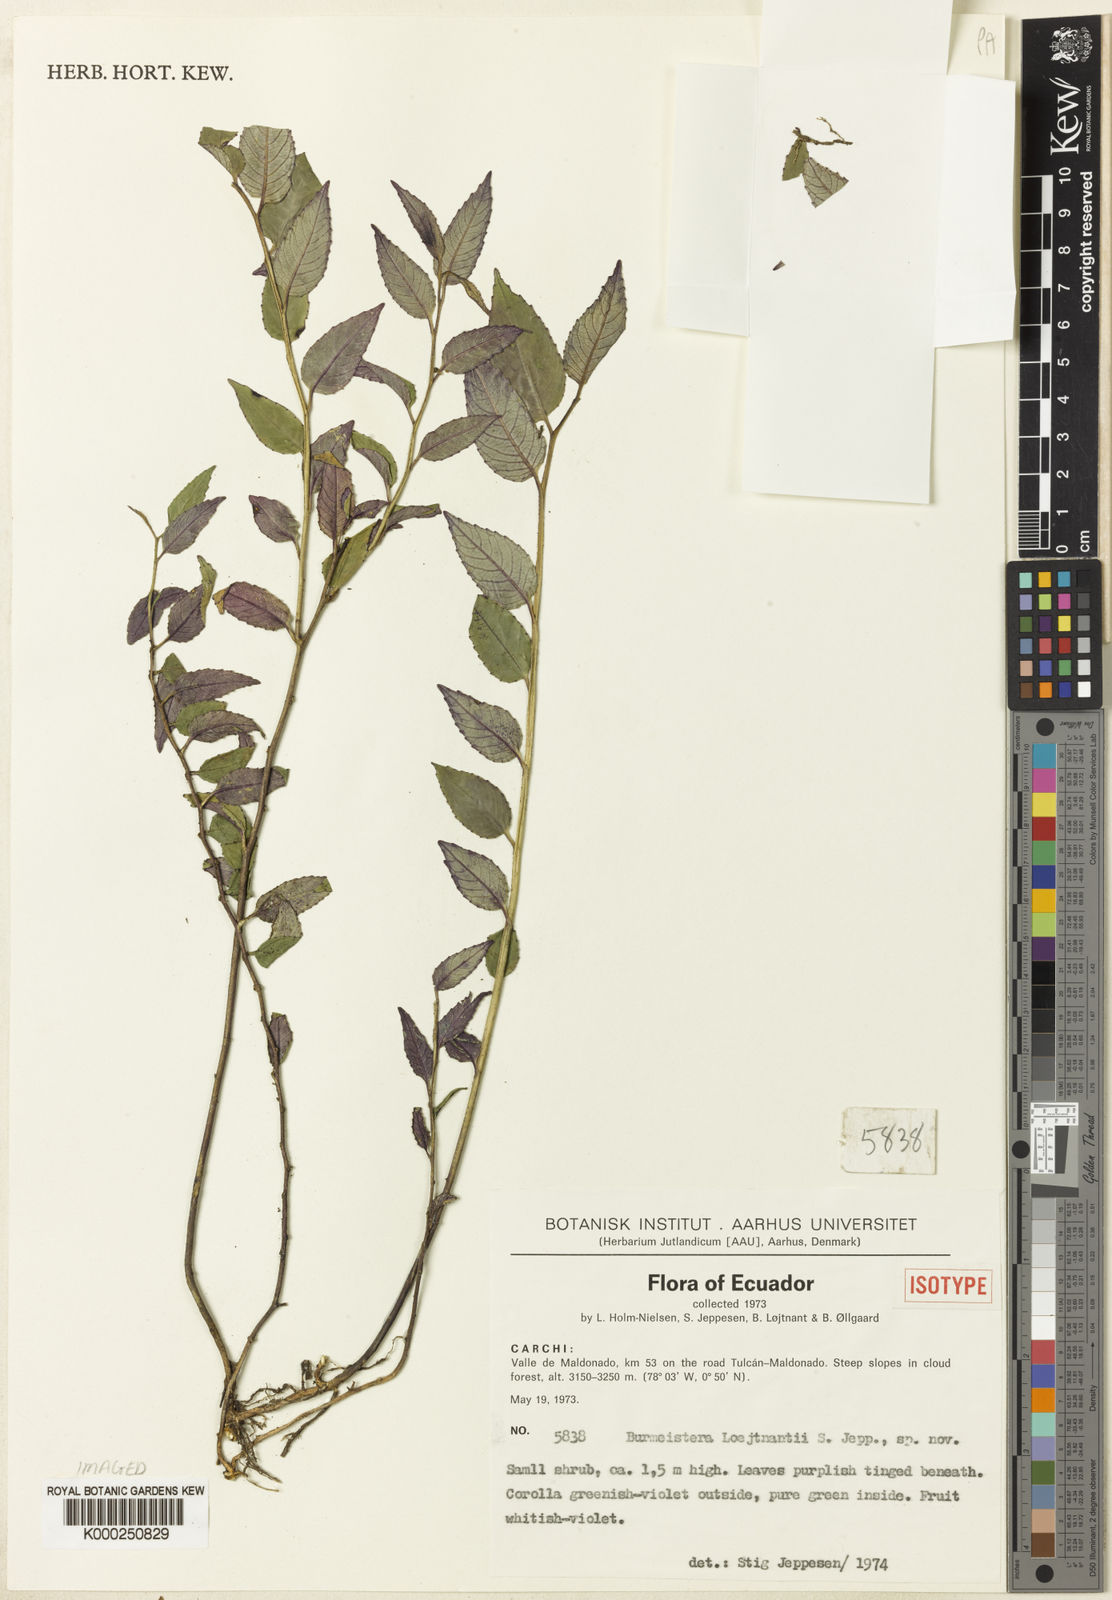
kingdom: Plantae
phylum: Tracheophyta
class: Magnoliopsida
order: Asterales
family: Campanulaceae
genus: Burmeistera
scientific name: Burmeistera loejtnantii
